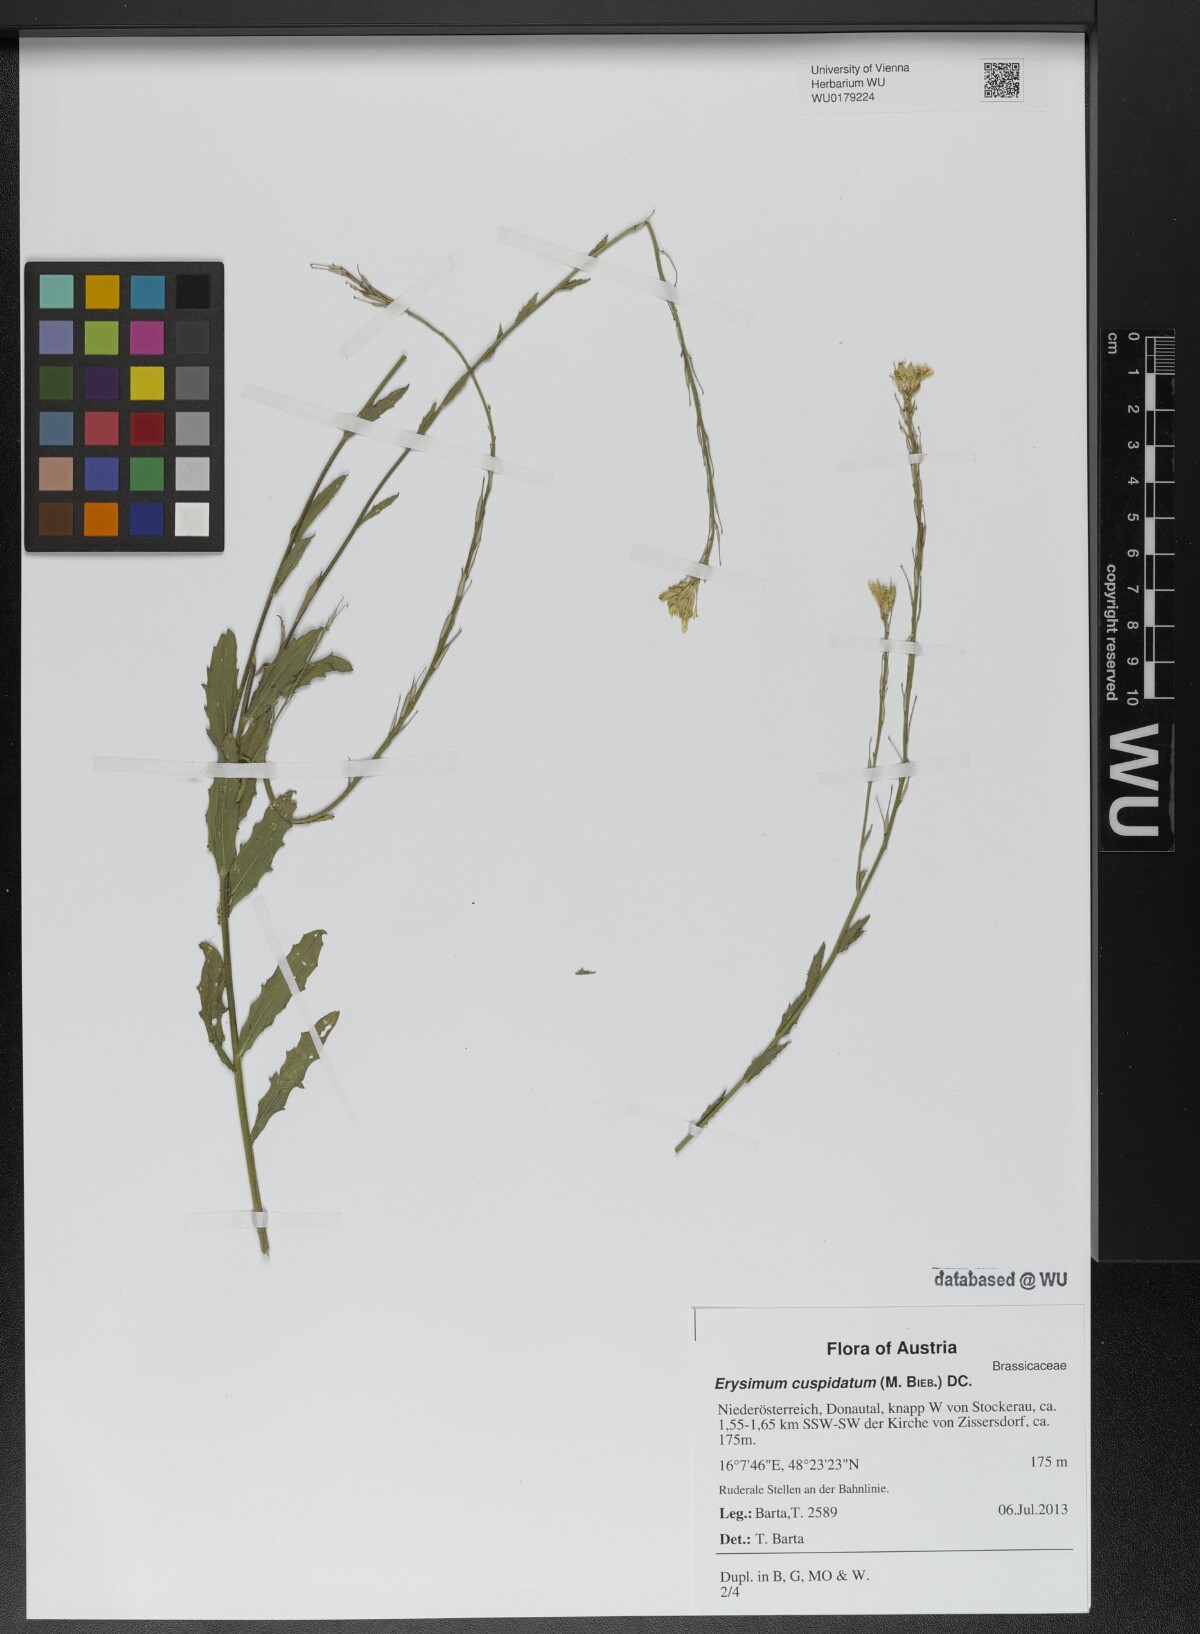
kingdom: Plantae
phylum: Tracheophyta
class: Magnoliopsida
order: Brassicales
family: Brassicaceae
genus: Erysimum
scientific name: Erysimum cuspidatum
